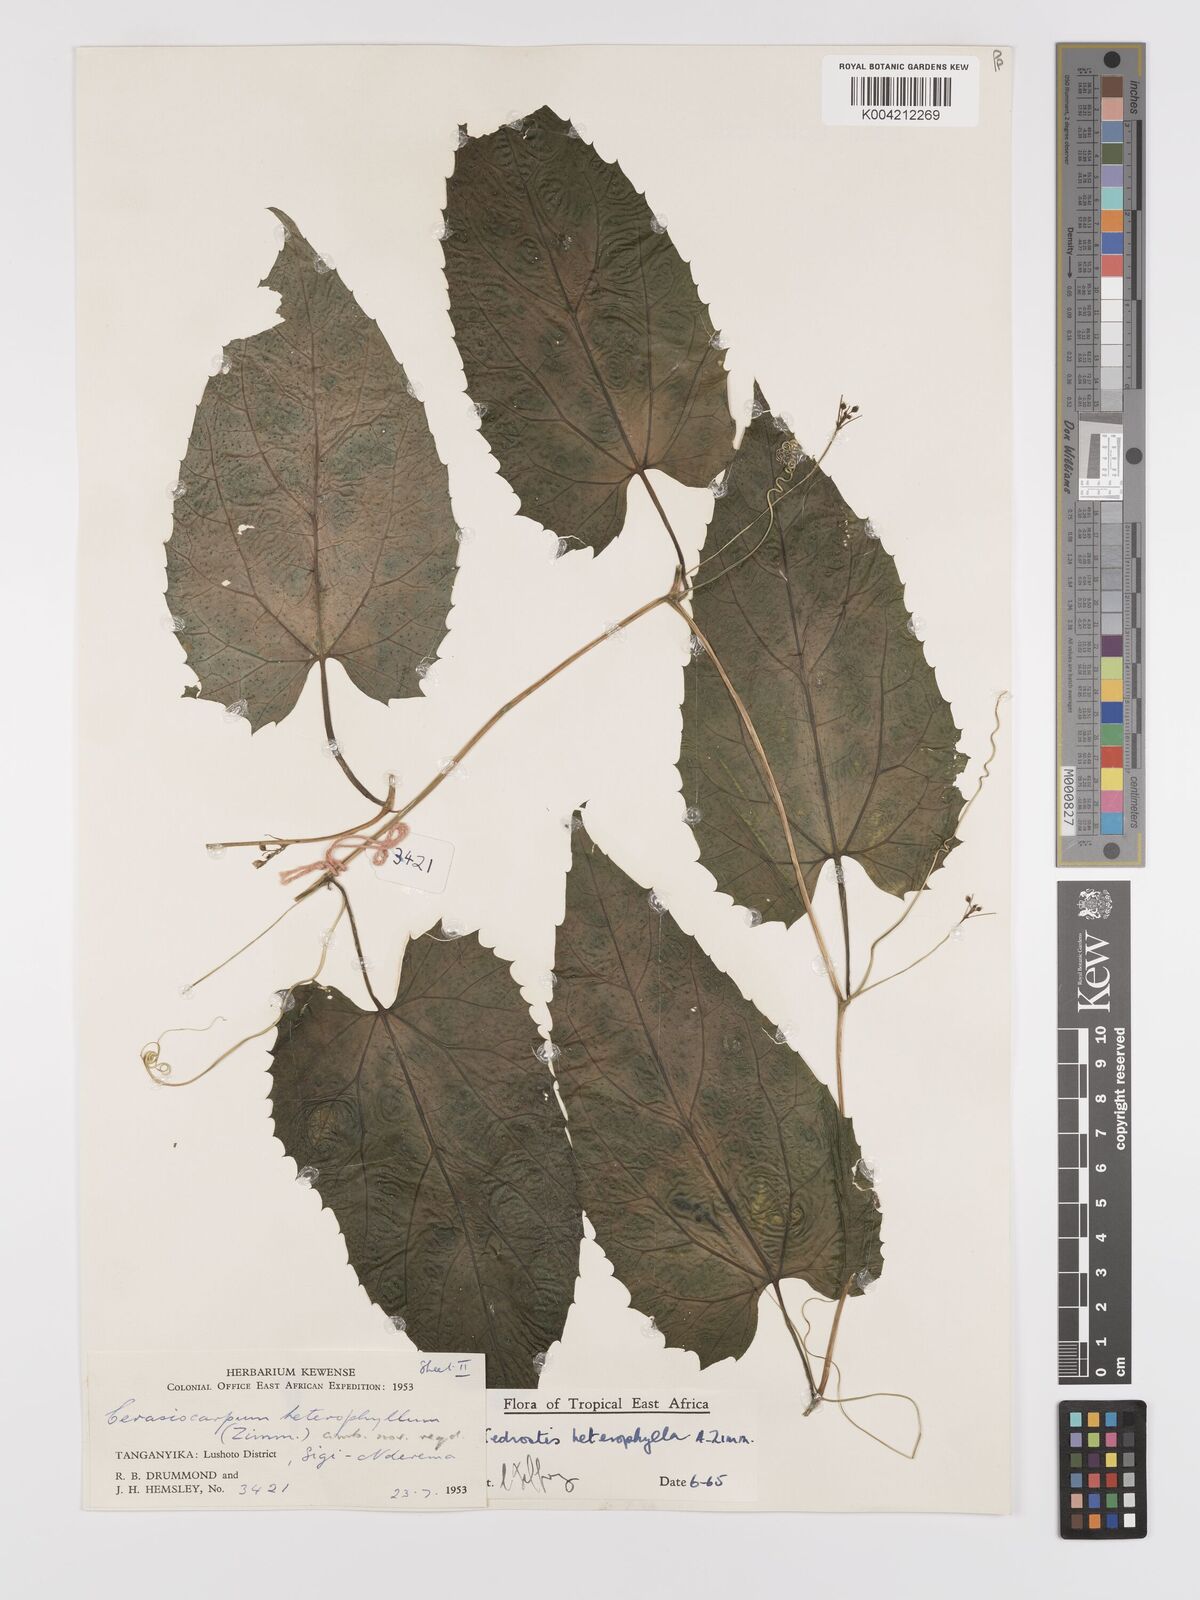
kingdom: Plantae
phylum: Tracheophyta
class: Magnoliopsida
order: Cucurbitales
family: Cucurbitaceae
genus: Kedrostis
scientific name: Kedrostis heterophylla
